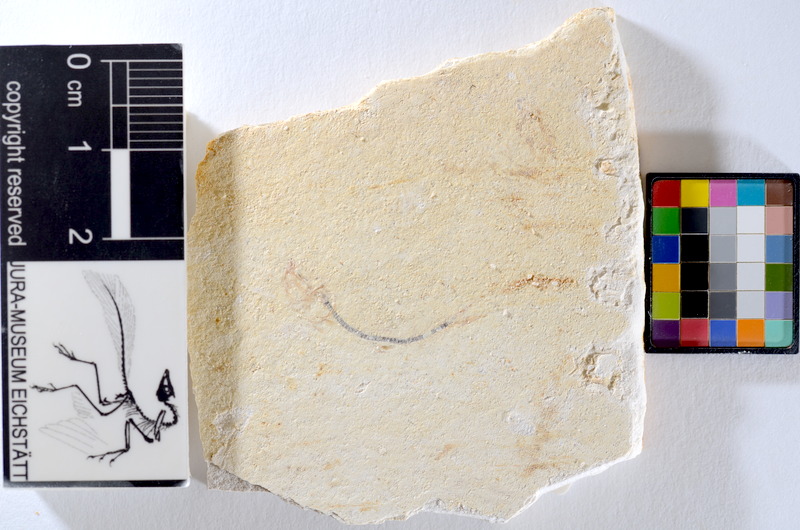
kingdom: Animalia
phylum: Chordata
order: Salmoniformes
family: Orthogonikleithridae
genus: Orthogonikleithrus
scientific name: Orthogonikleithrus hoelli
